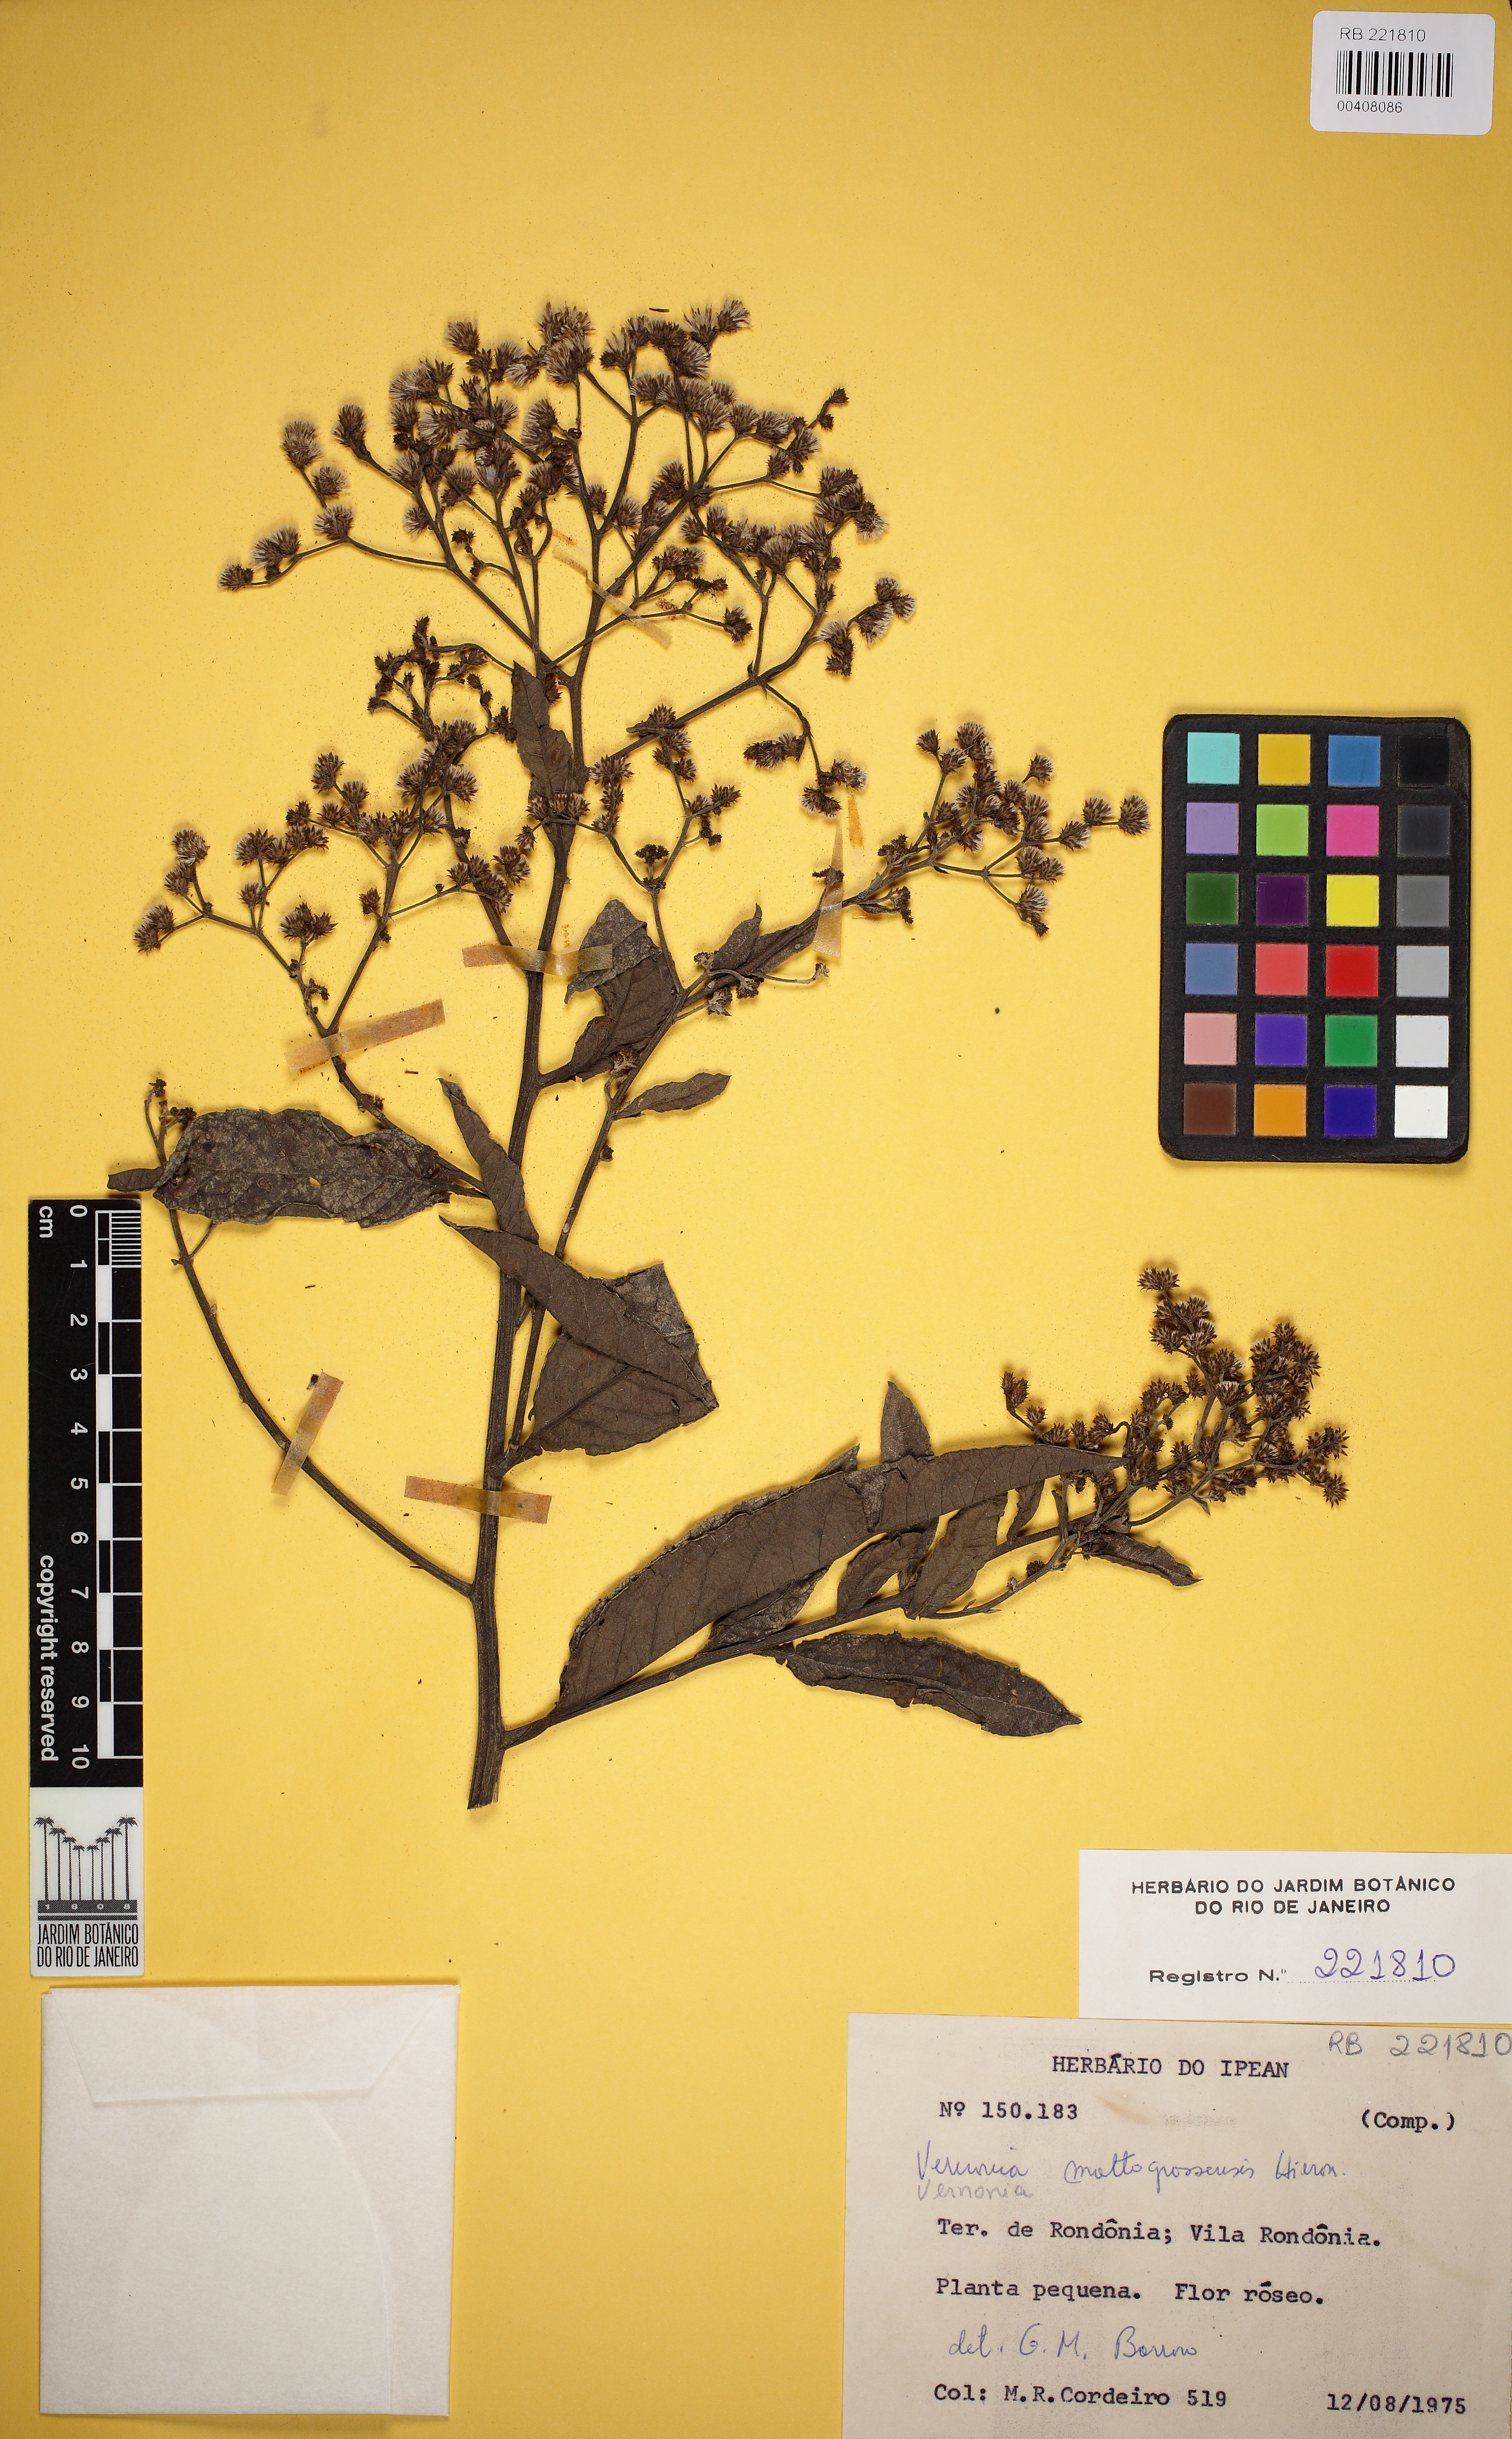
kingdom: Plantae
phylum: Tracheophyta
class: Magnoliopsida
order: Asterales
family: Asteraceae
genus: Vernonanthura
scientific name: Vernonanthura patens
